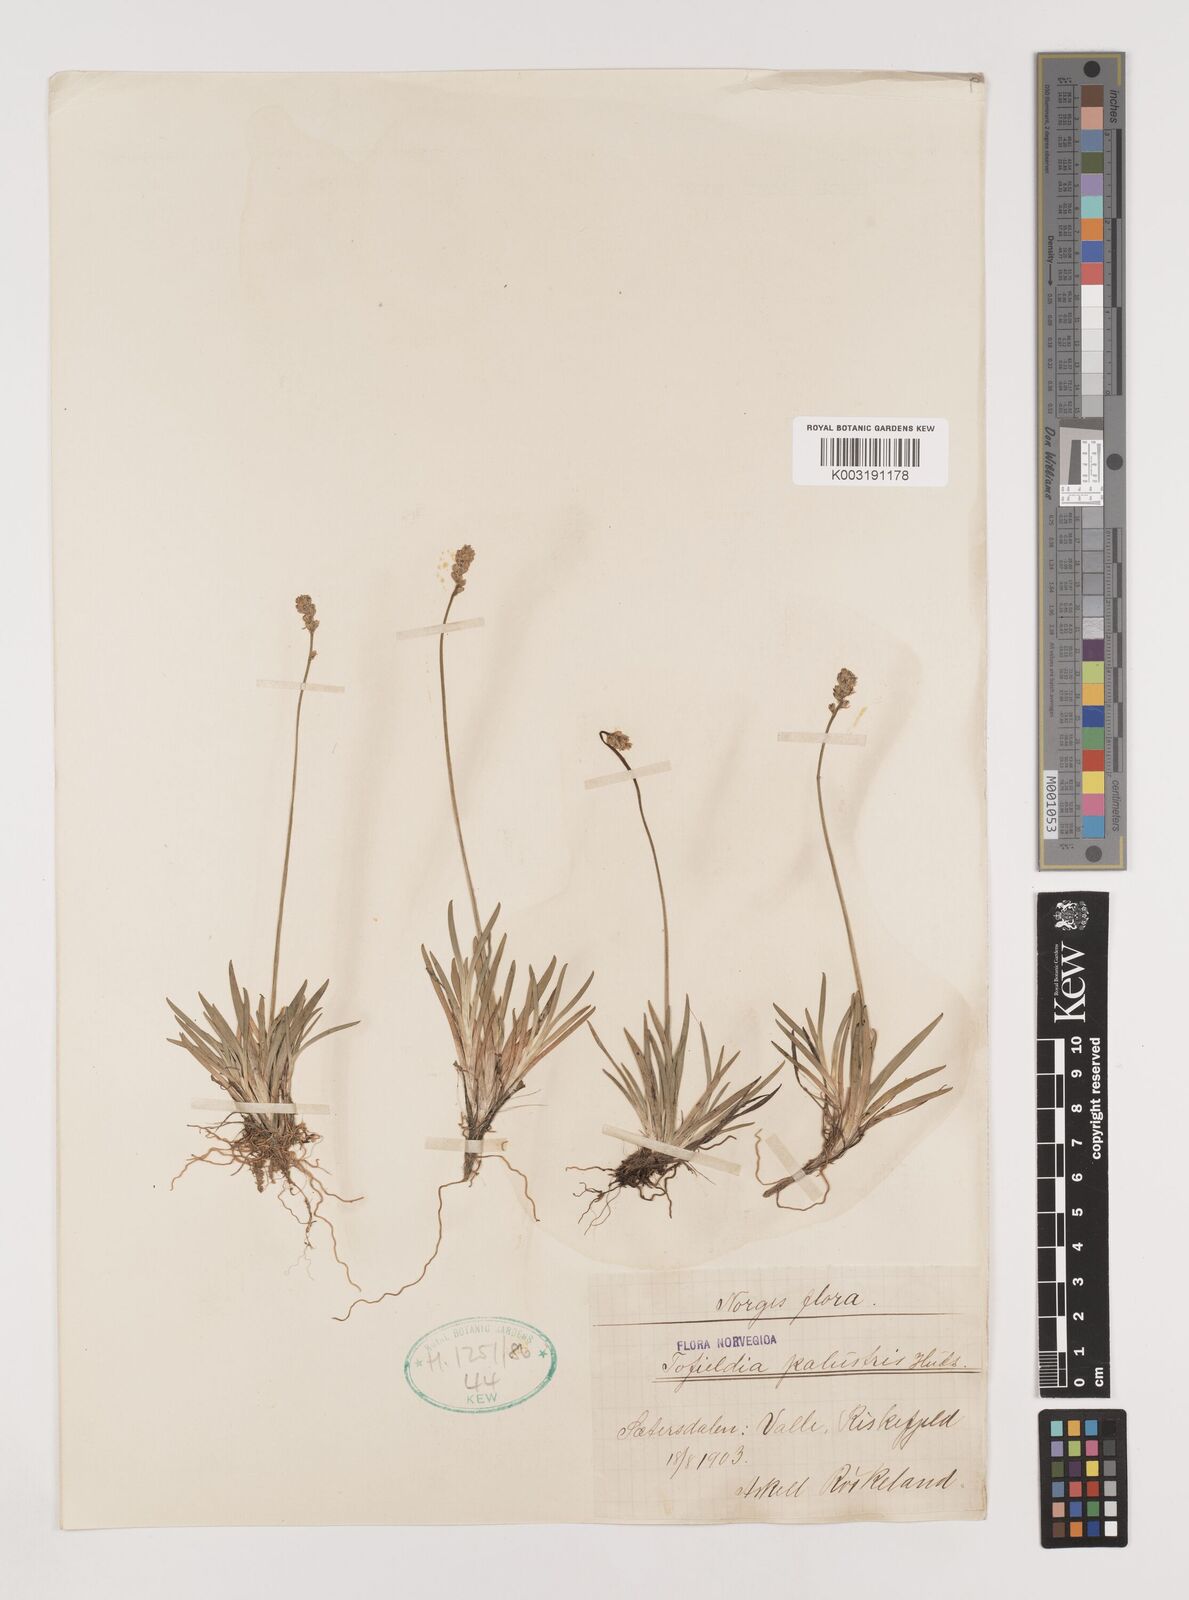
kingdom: Plantae
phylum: Tracheophyta
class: Liliopsida
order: Alismatales
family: Tofieldiaceae
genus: Tofieldia
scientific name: Tofieldia pusilla
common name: Scottish false asphodel
